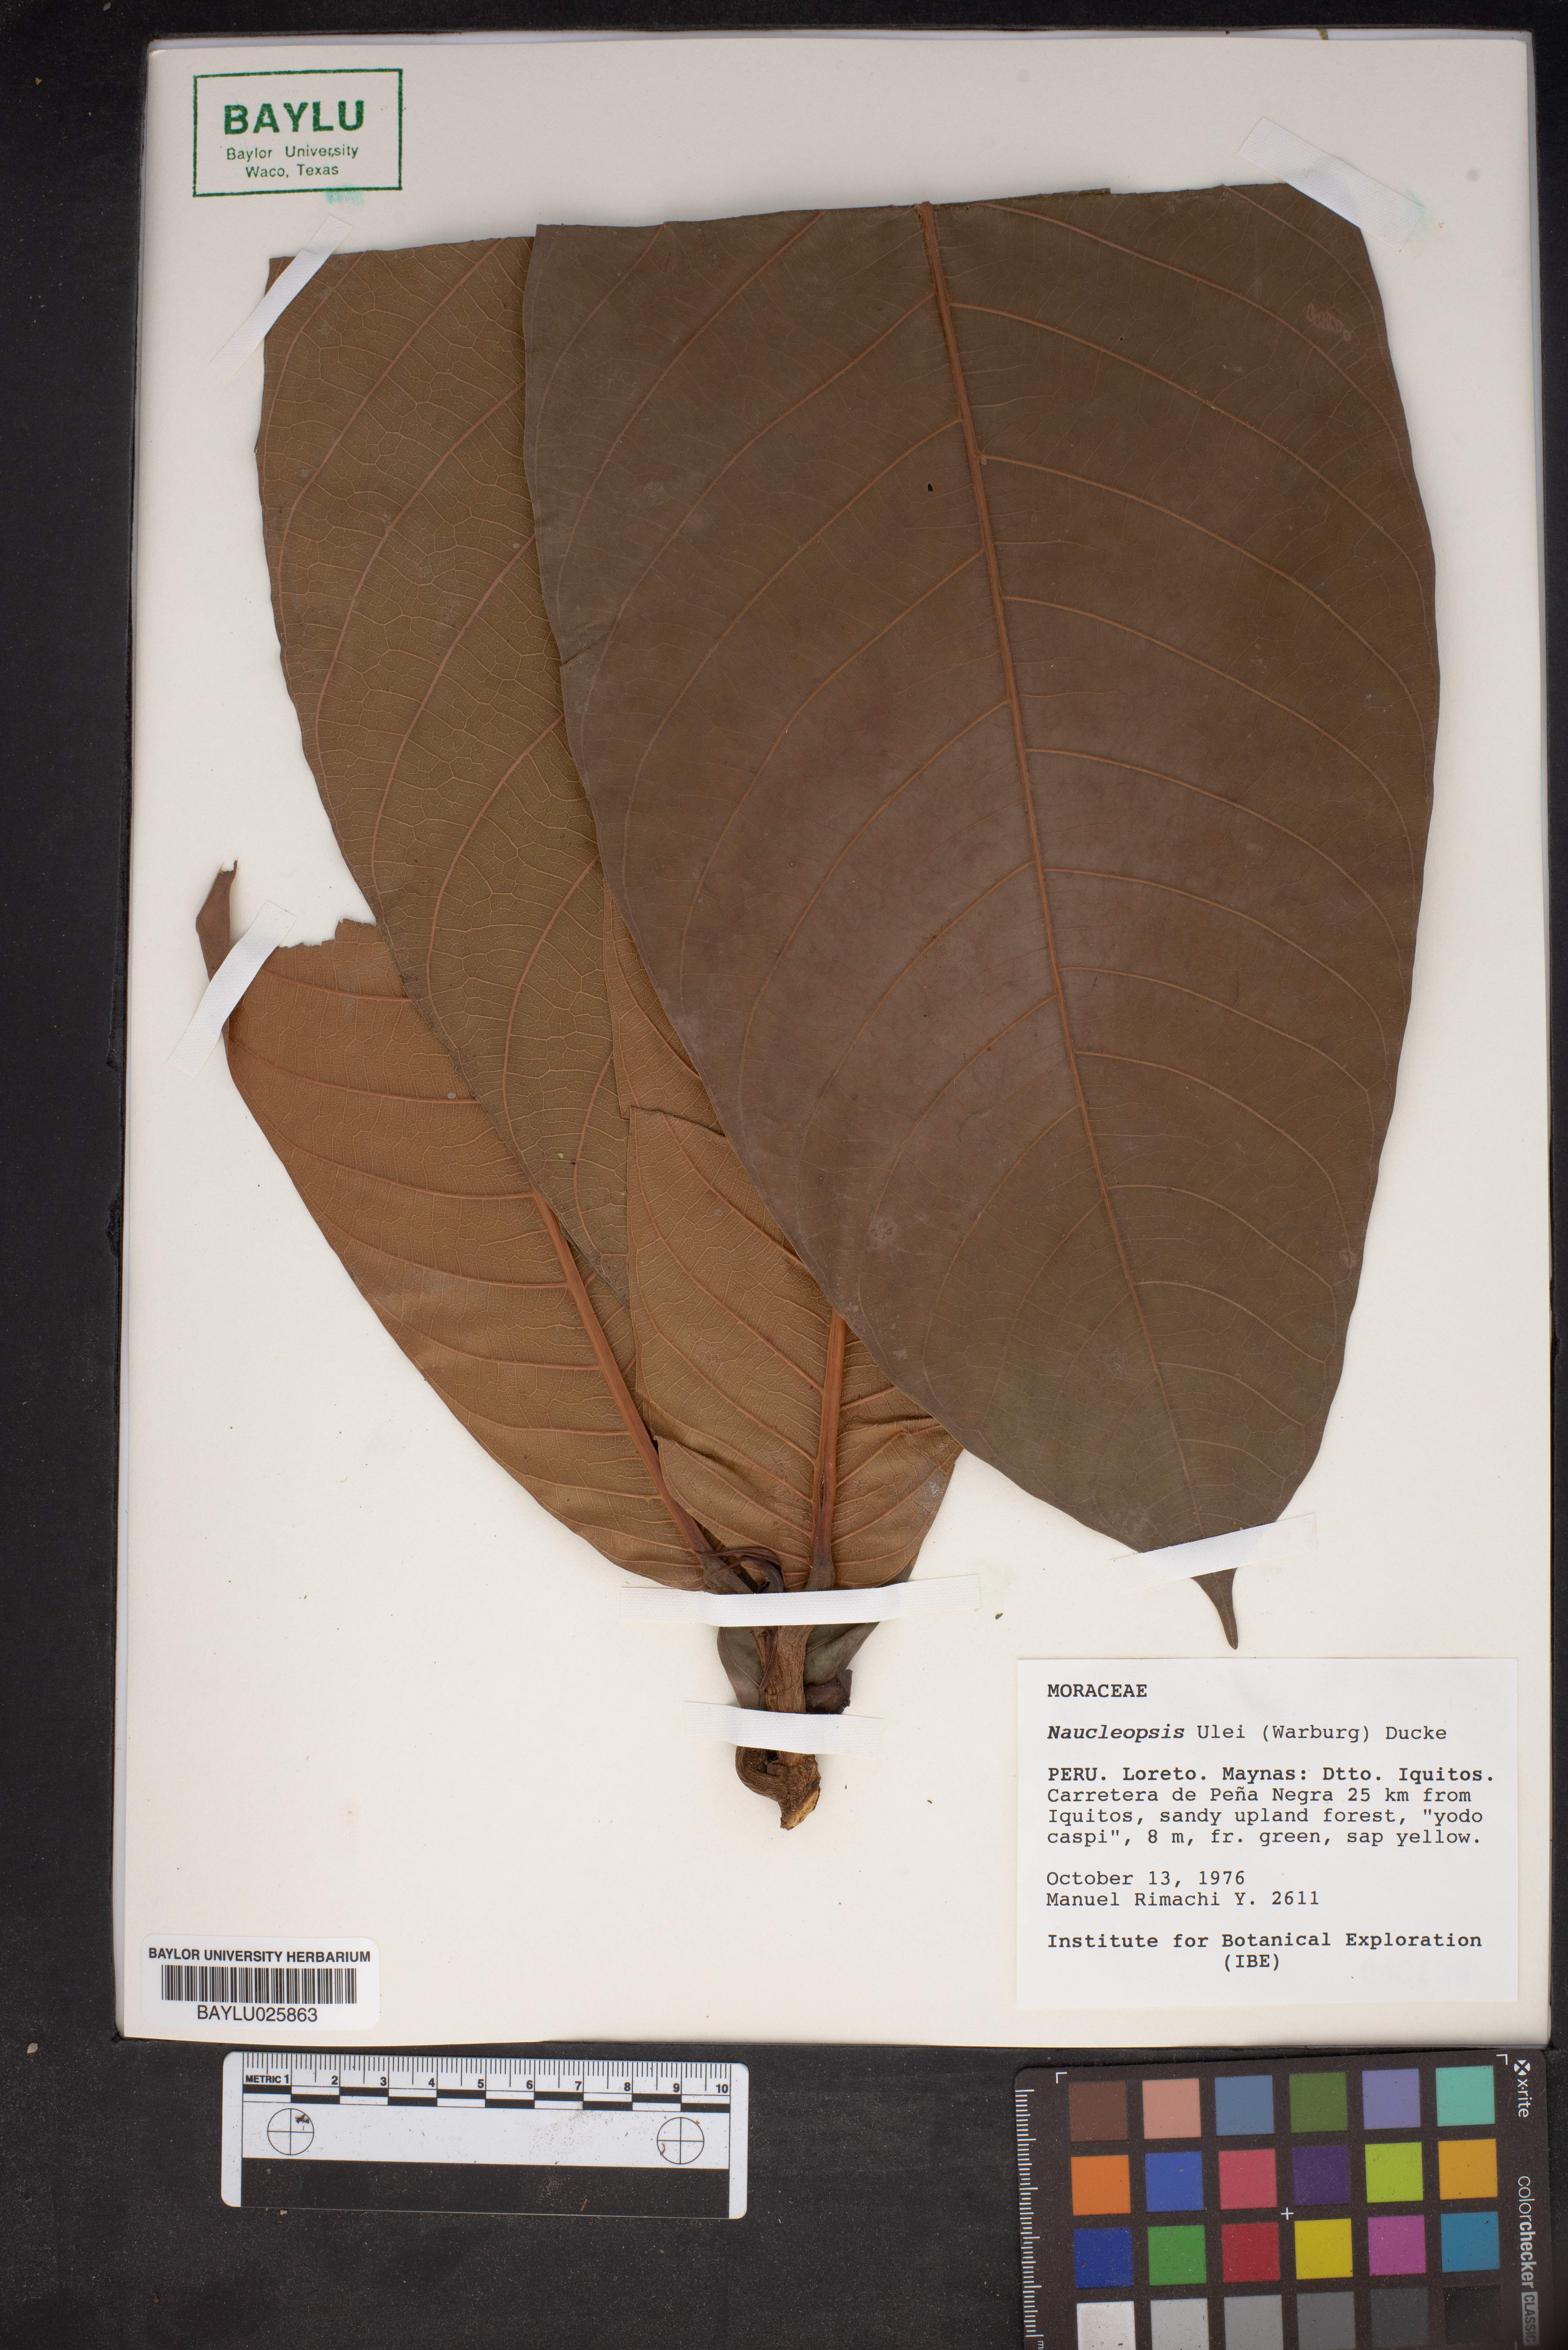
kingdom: Plantae
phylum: Tracheophyta
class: Magnoliopsida
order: Rosales
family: Moraceae
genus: Naucleopsis
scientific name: Naucleopsis ulei
